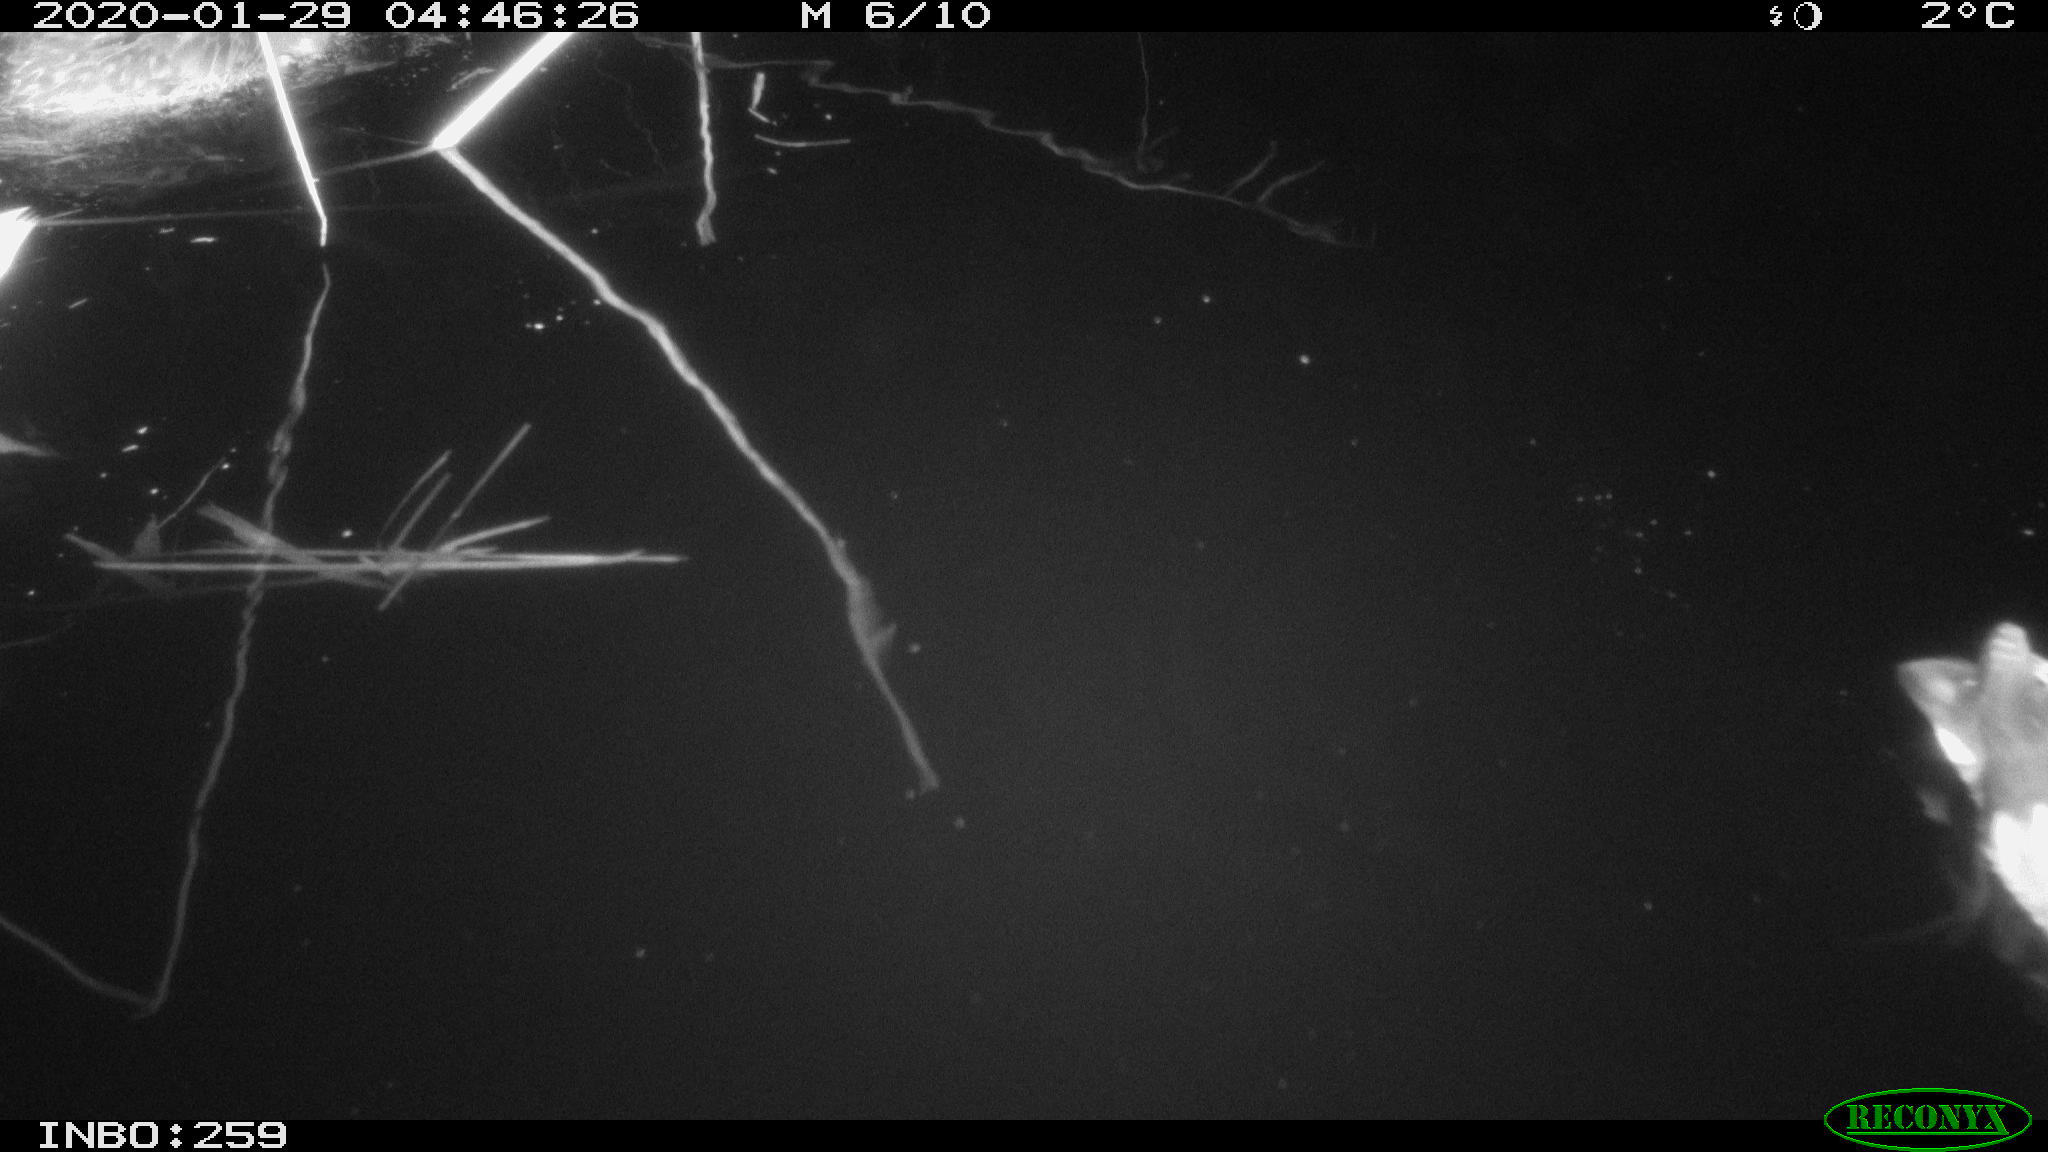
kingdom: Animalia
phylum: Chordata
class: Aves
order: Anseriformes
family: Anatidae
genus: Anas
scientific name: Anas platyrhynchos
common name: Mallard
